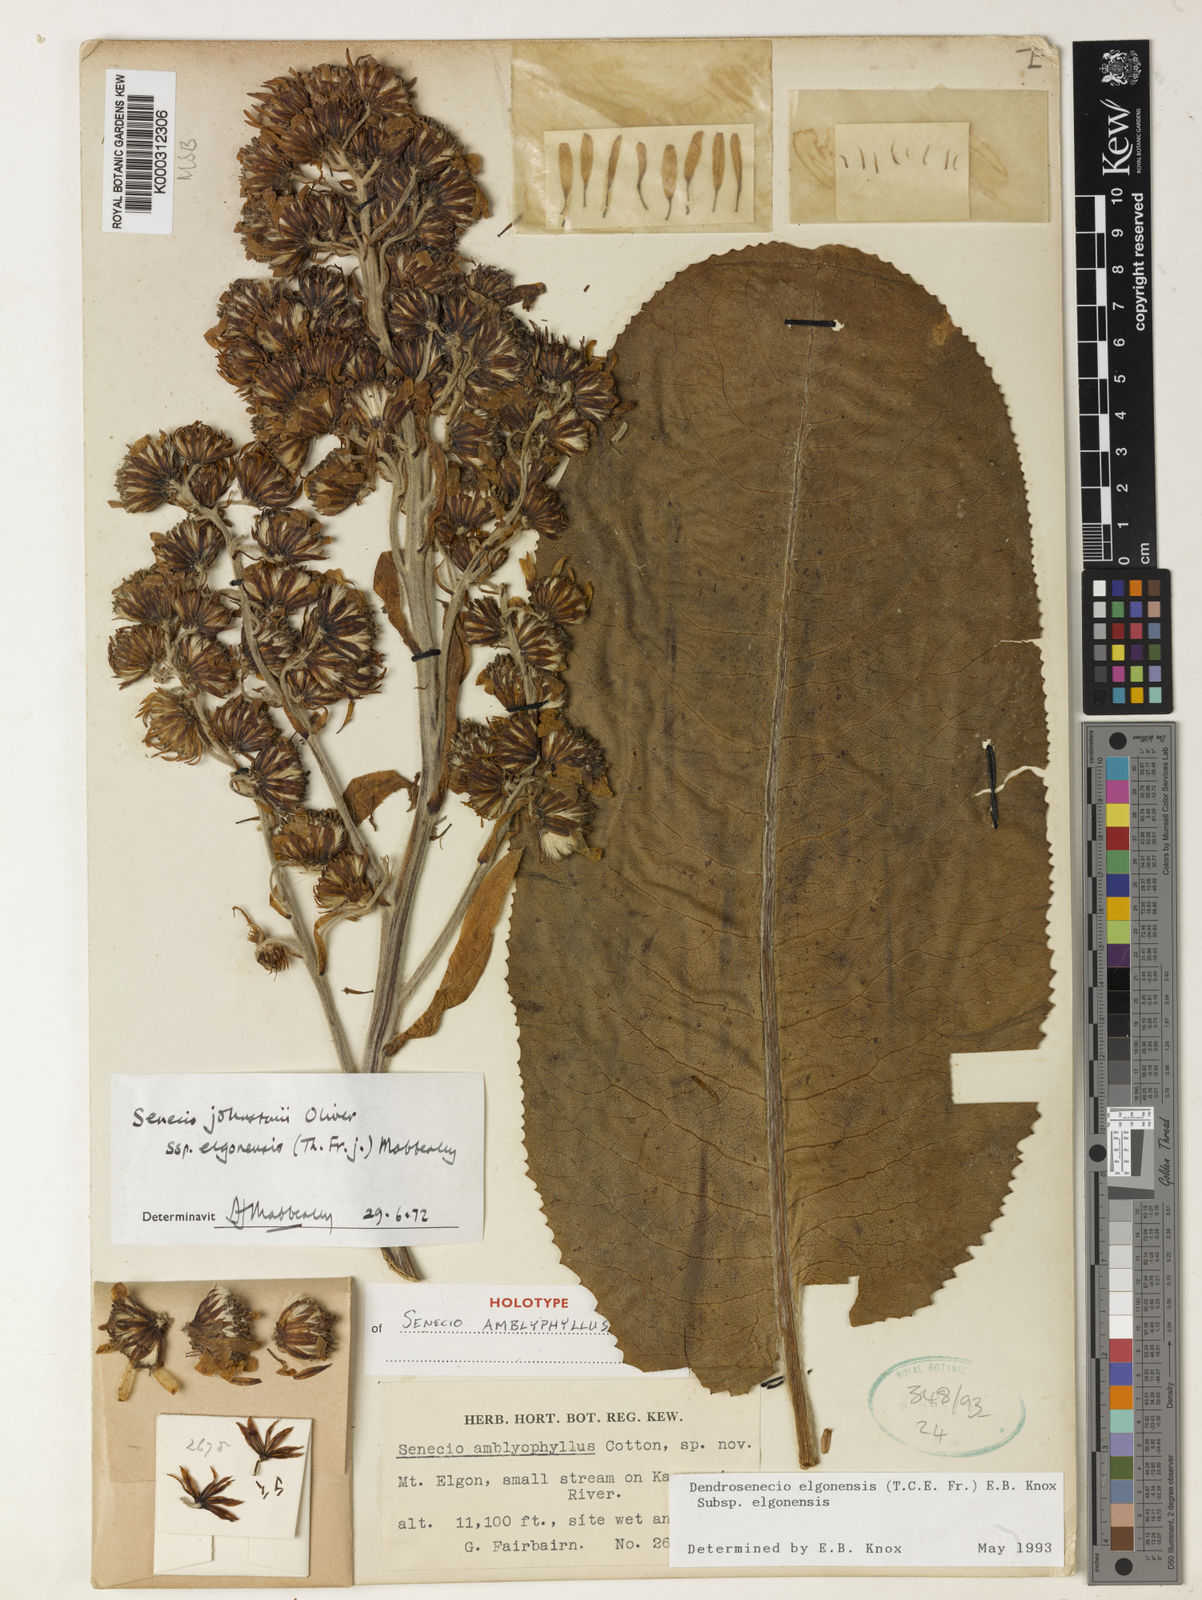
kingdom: Plantae
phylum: Tracheophyta
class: Magnoliopsida
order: Asterales
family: Asteraceae
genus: Dendrosenecio
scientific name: Dendrosenecio elgonensis
